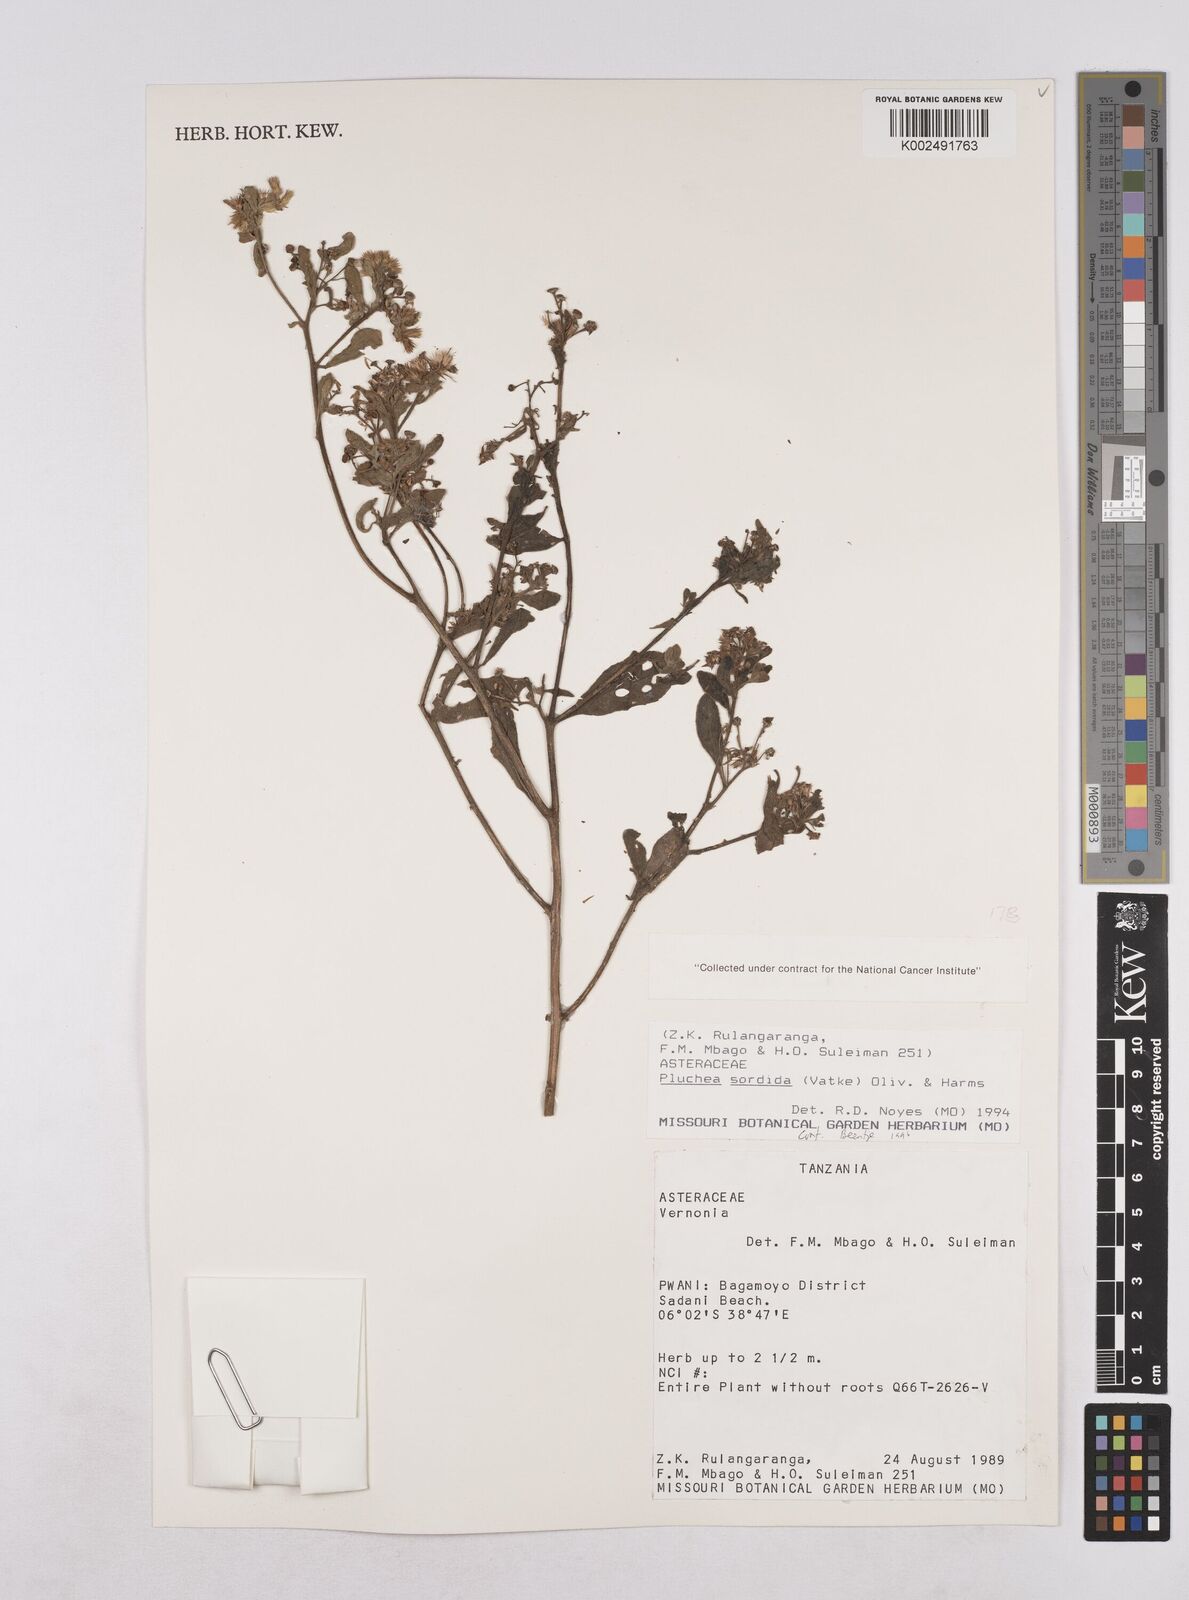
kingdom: Plantae
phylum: Tracheophyta
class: Magnoliopsida
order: Asterales
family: Asteraceae
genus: Pluchea
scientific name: Pluchea sordida
